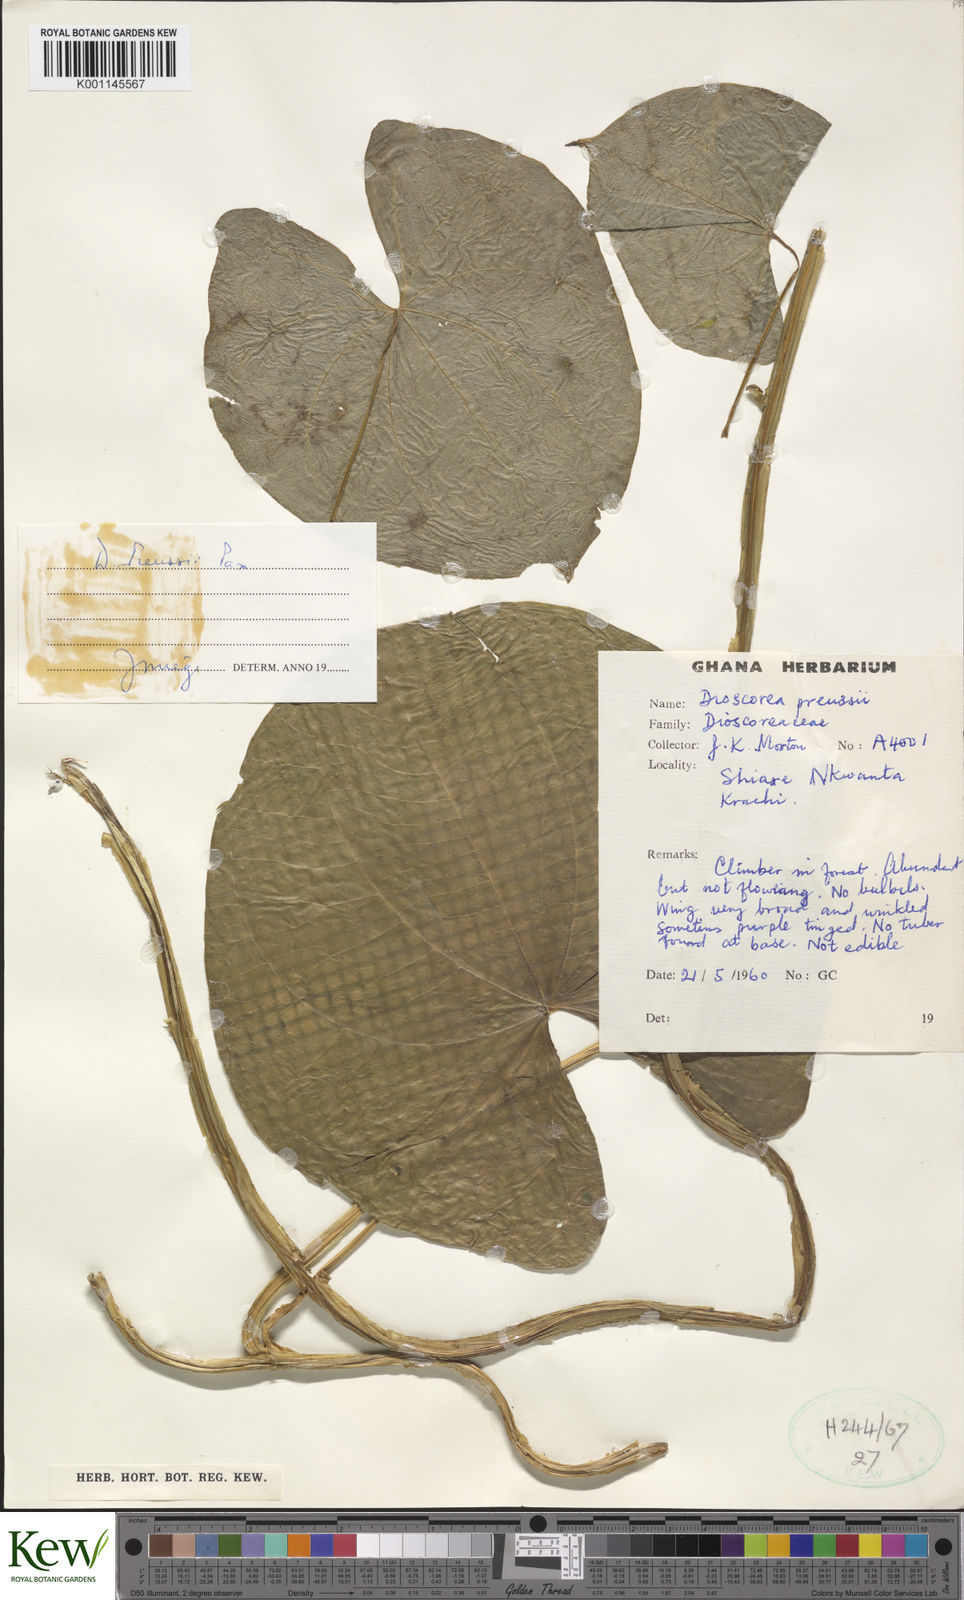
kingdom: Plantae
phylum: Tracheophyta
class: Liliopsida
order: Dioscoreales
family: Dioscoreaceae
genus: Dioscorea
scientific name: Dioscorea preussii
